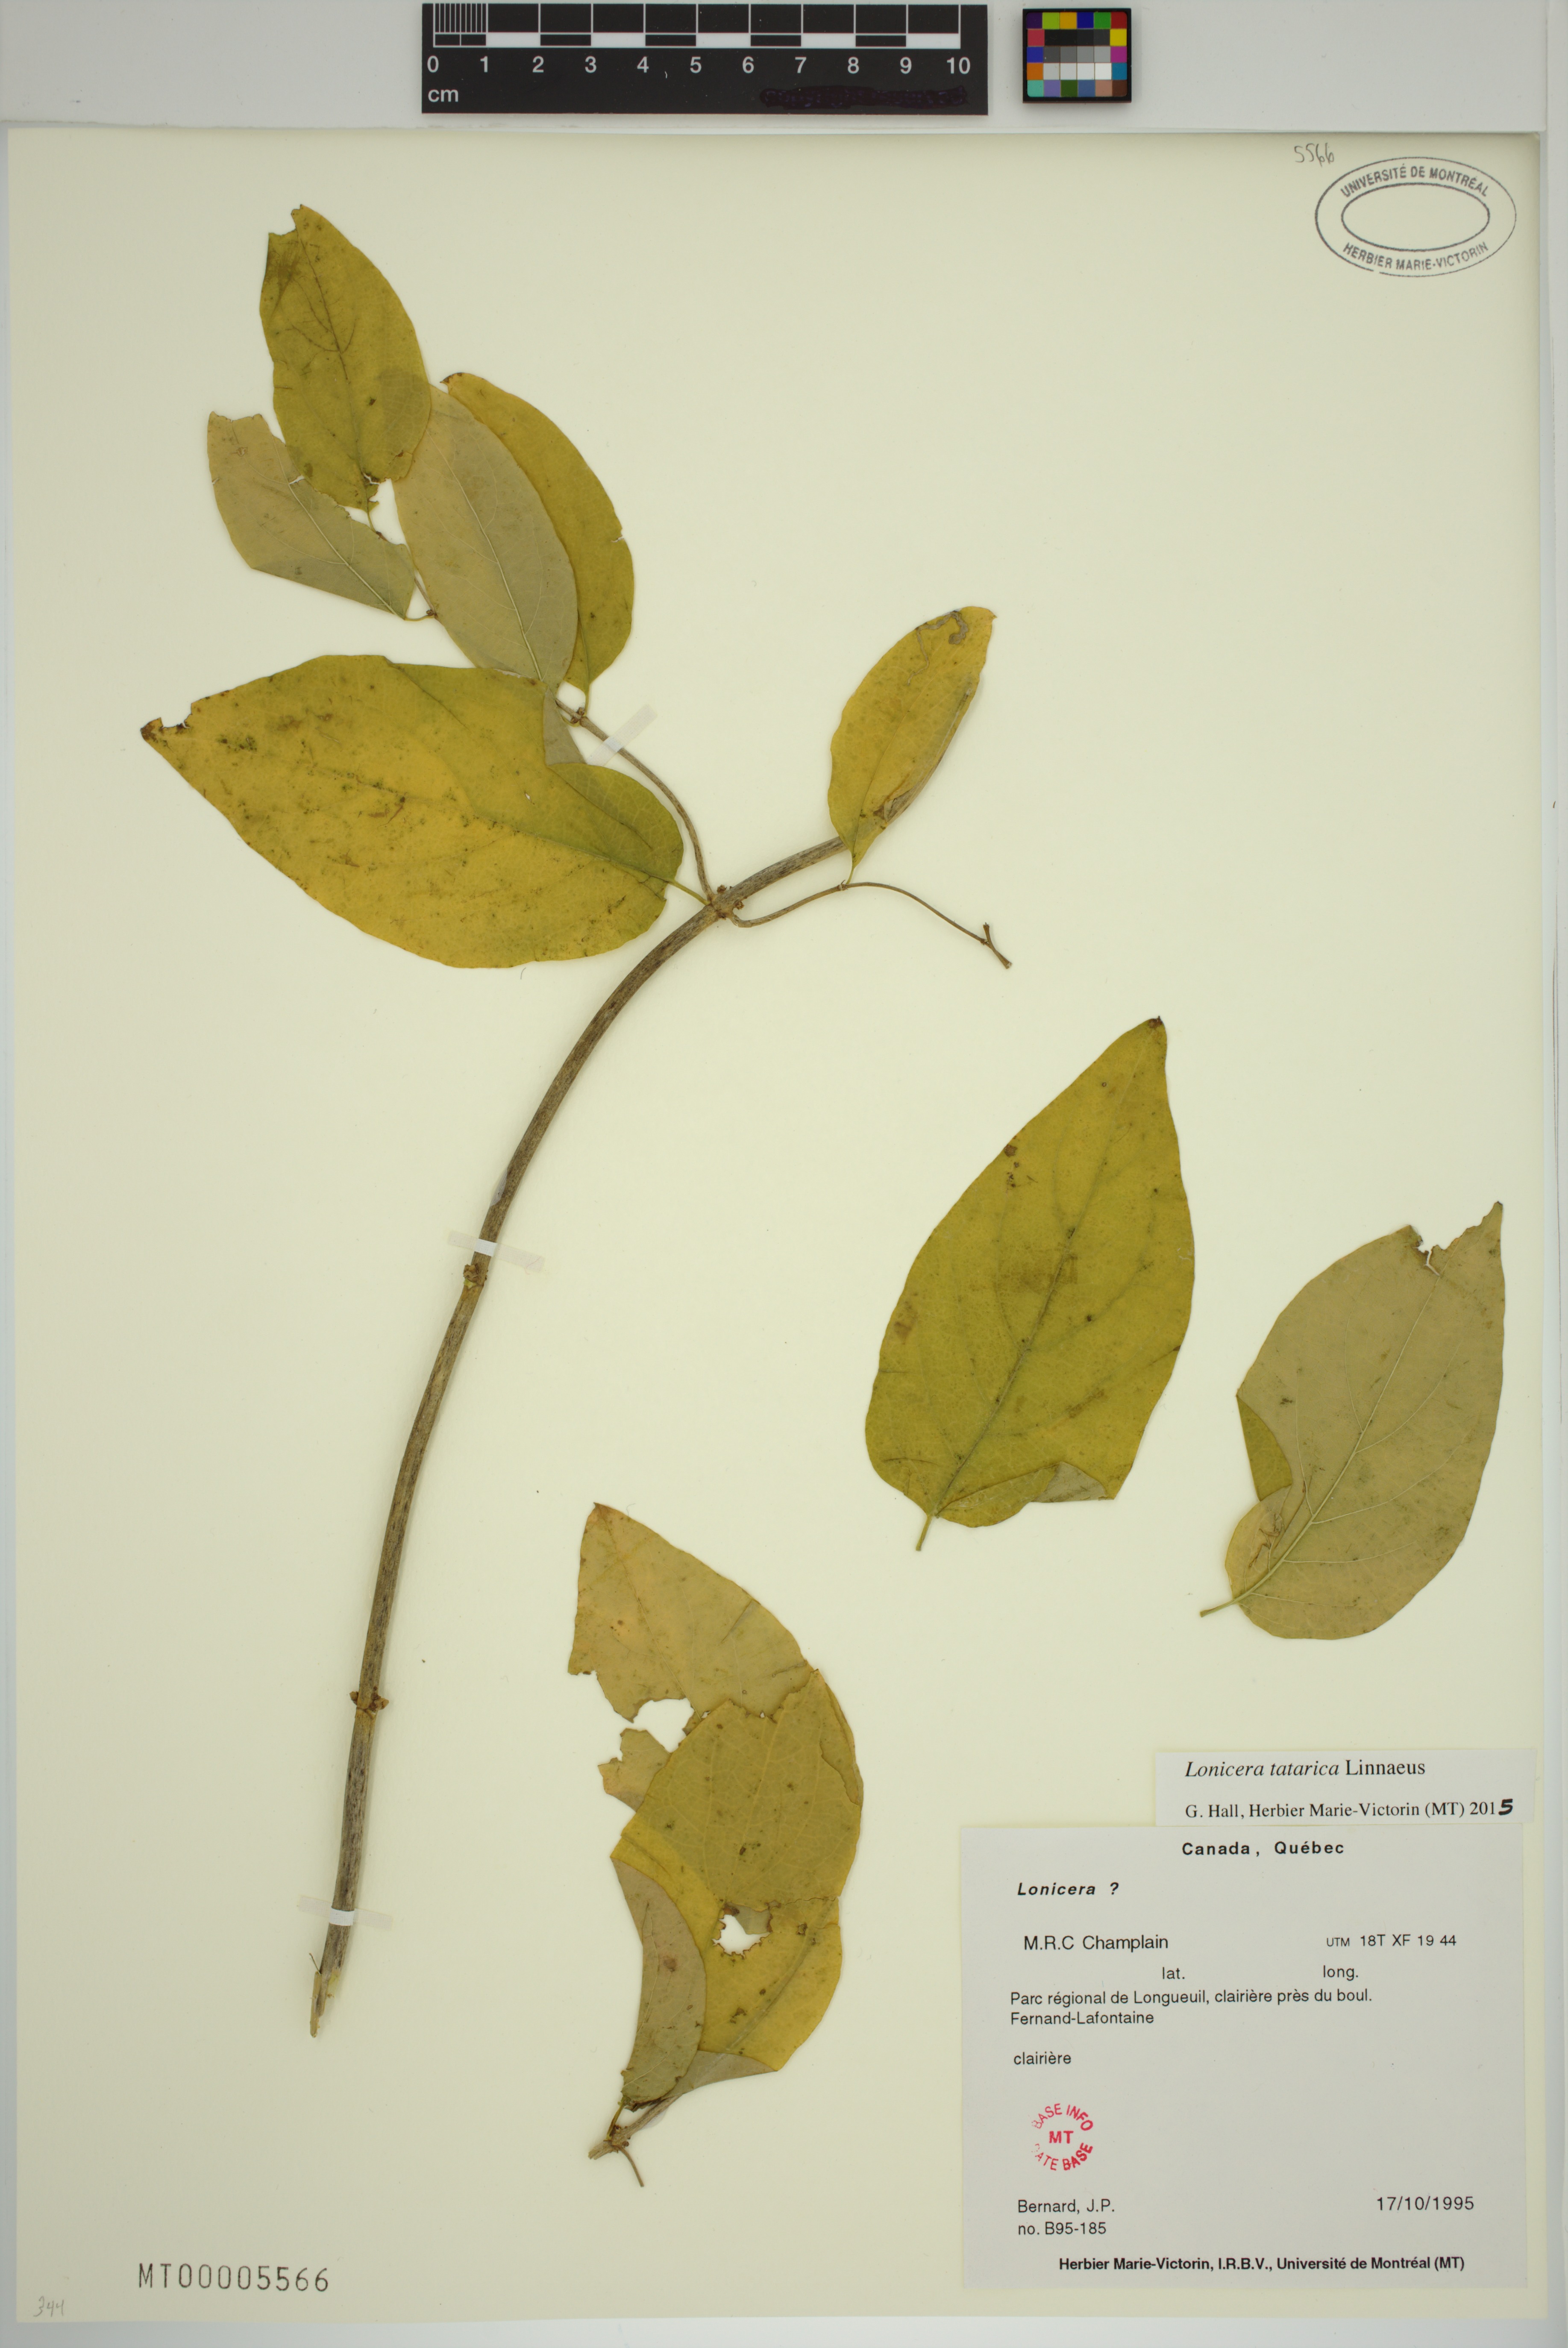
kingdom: Plantae
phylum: Tracheophyta
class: Magnoliopsida
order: Dipsacales
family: Caprifoliaceae
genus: Lonicera
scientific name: Lonicera tatarica
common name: Tatarian honeysuckle
